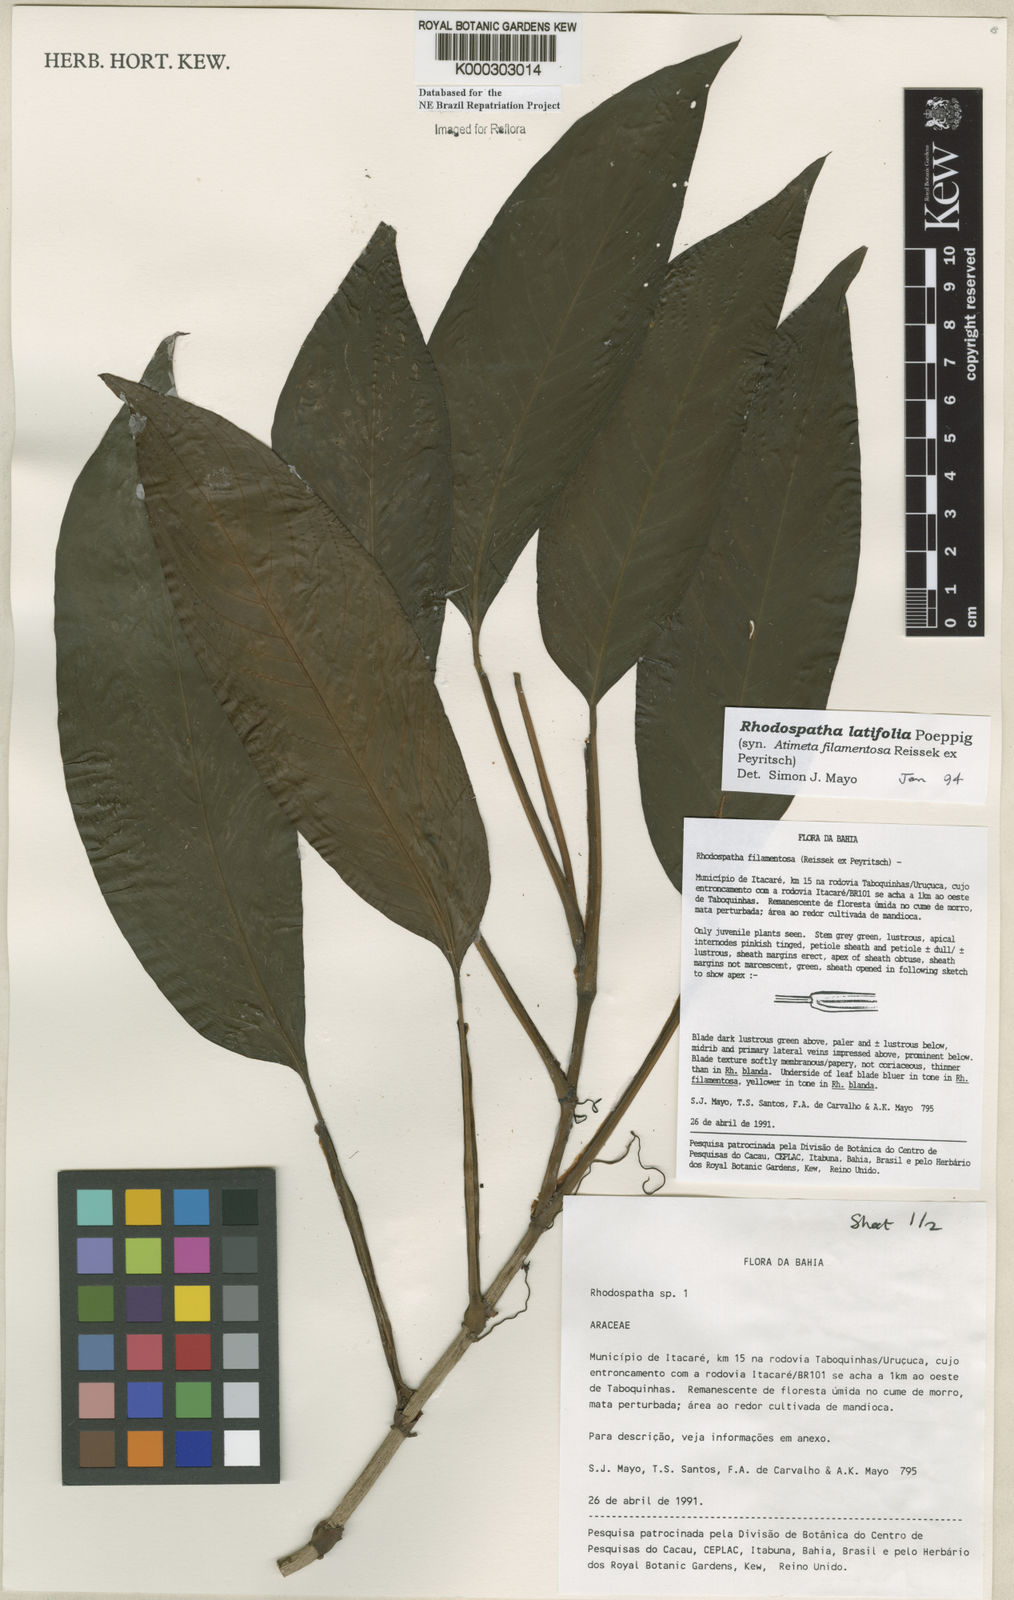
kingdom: Plantae
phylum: Tracheophyta
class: Liliopsida
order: Alismatales
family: Araceae
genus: Rhodospatha
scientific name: Rhodospatha latifolia
